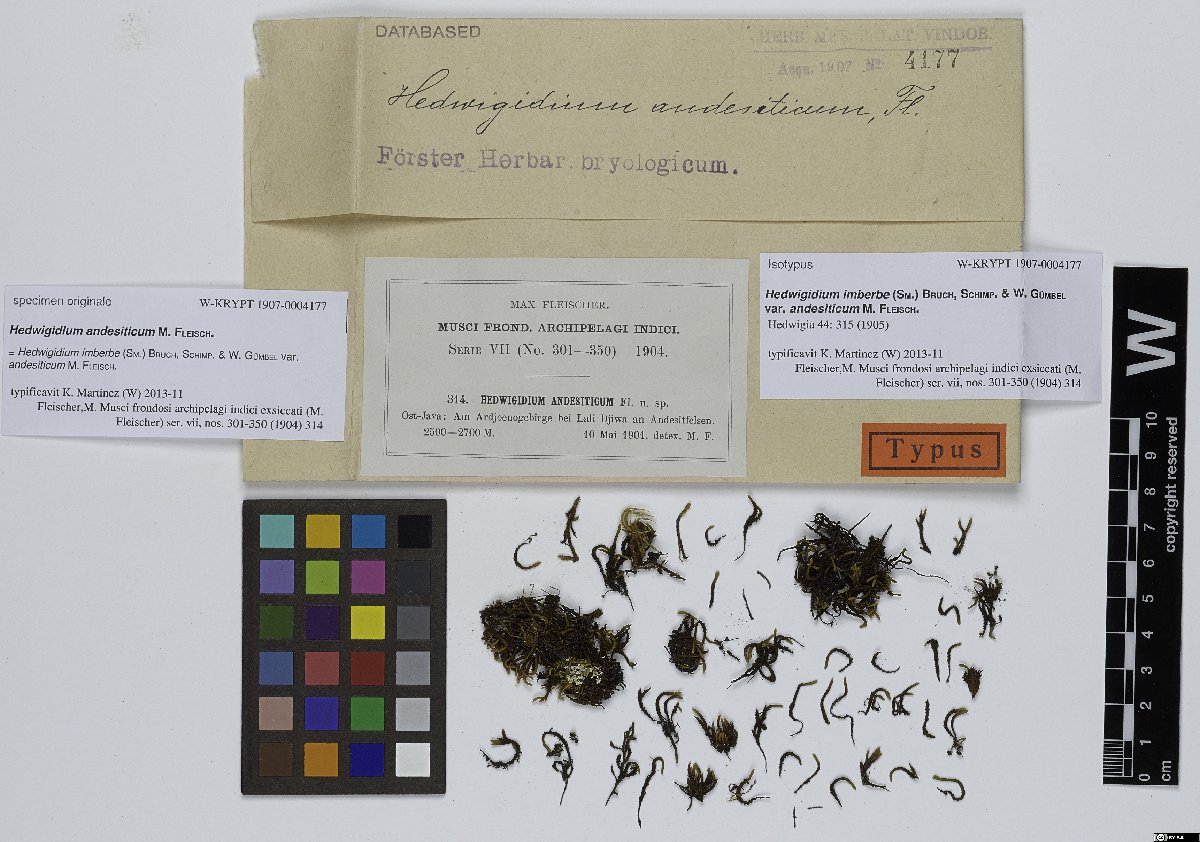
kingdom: Plantae
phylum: Bryophyta
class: Bryopsida
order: Hedwigiales
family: Hedwigiaceae
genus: Hedwigidium
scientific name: Hedwigidium imberbe
